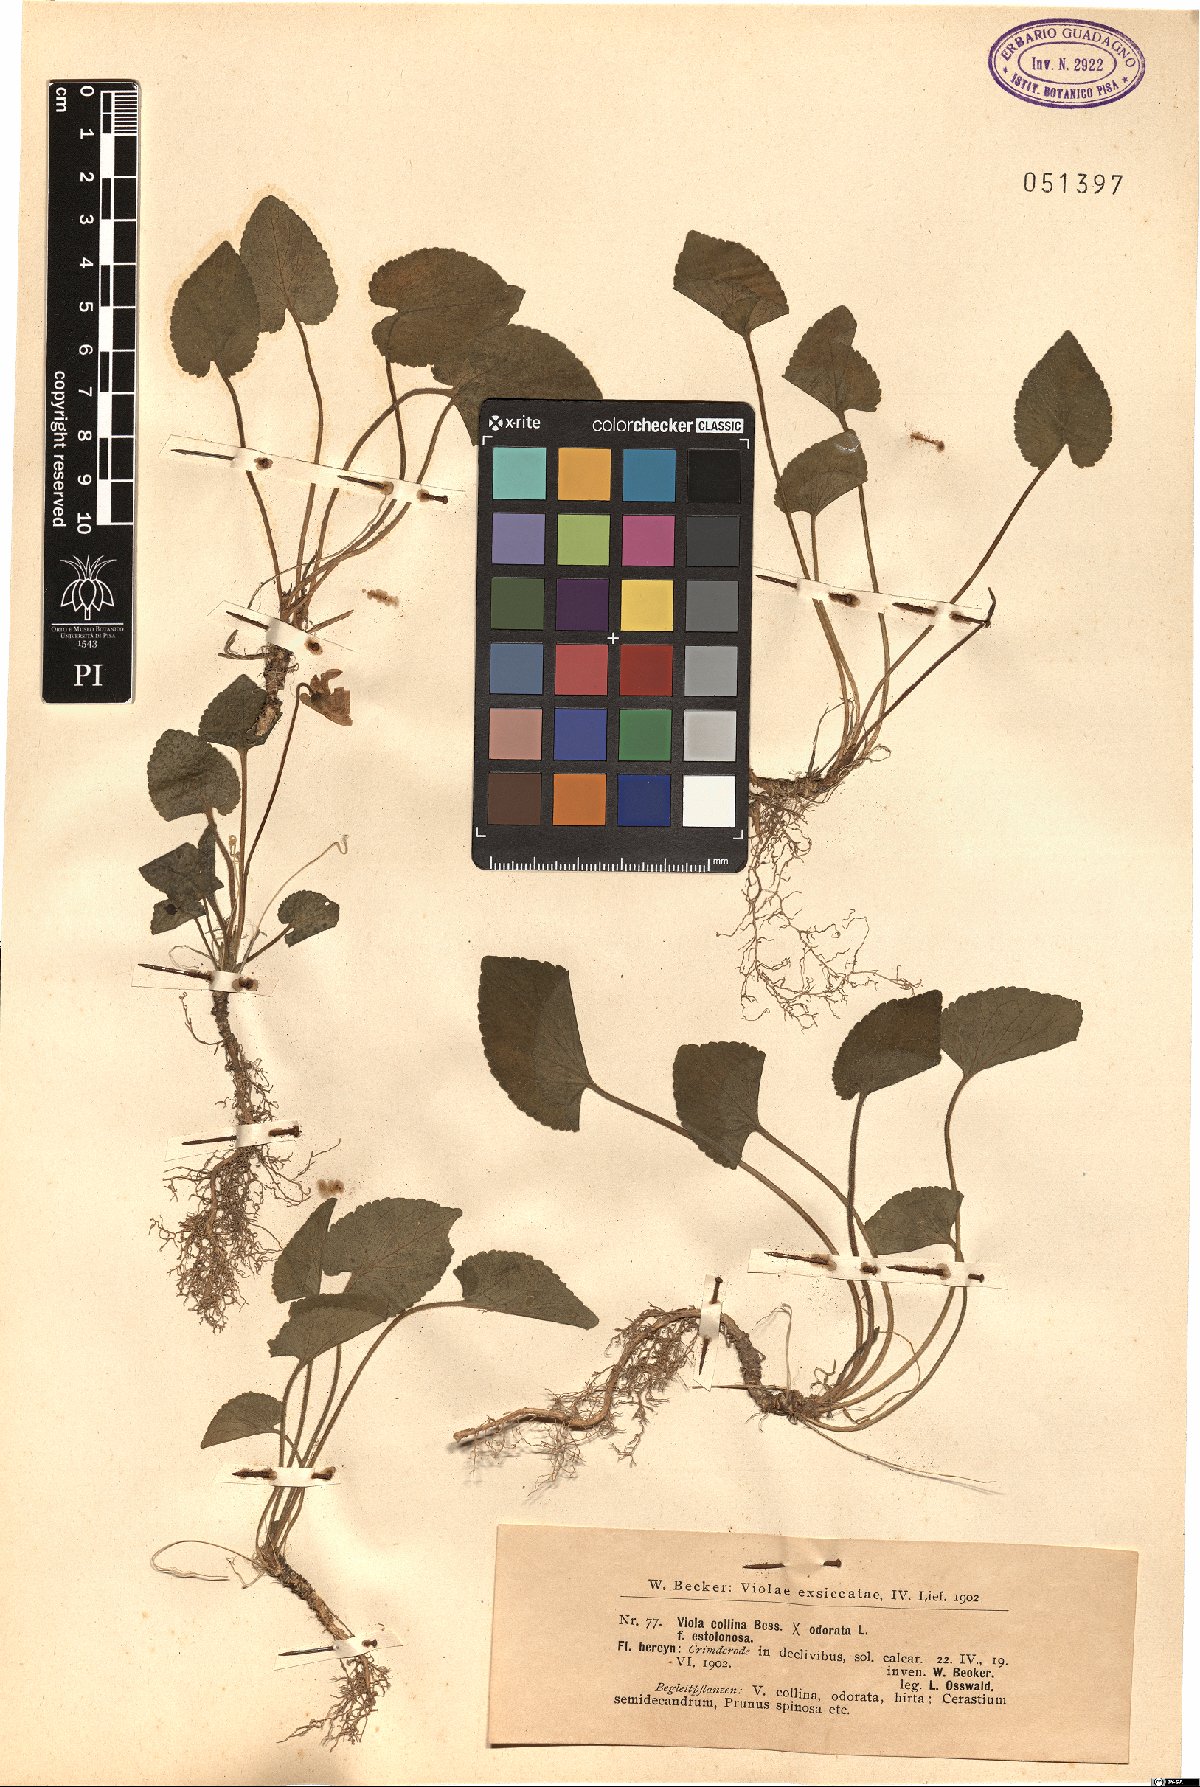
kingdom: Plantae
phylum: Tracheophyta
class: Magnoliopsida
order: Malpighiales
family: Violaceae
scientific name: Violaceae
